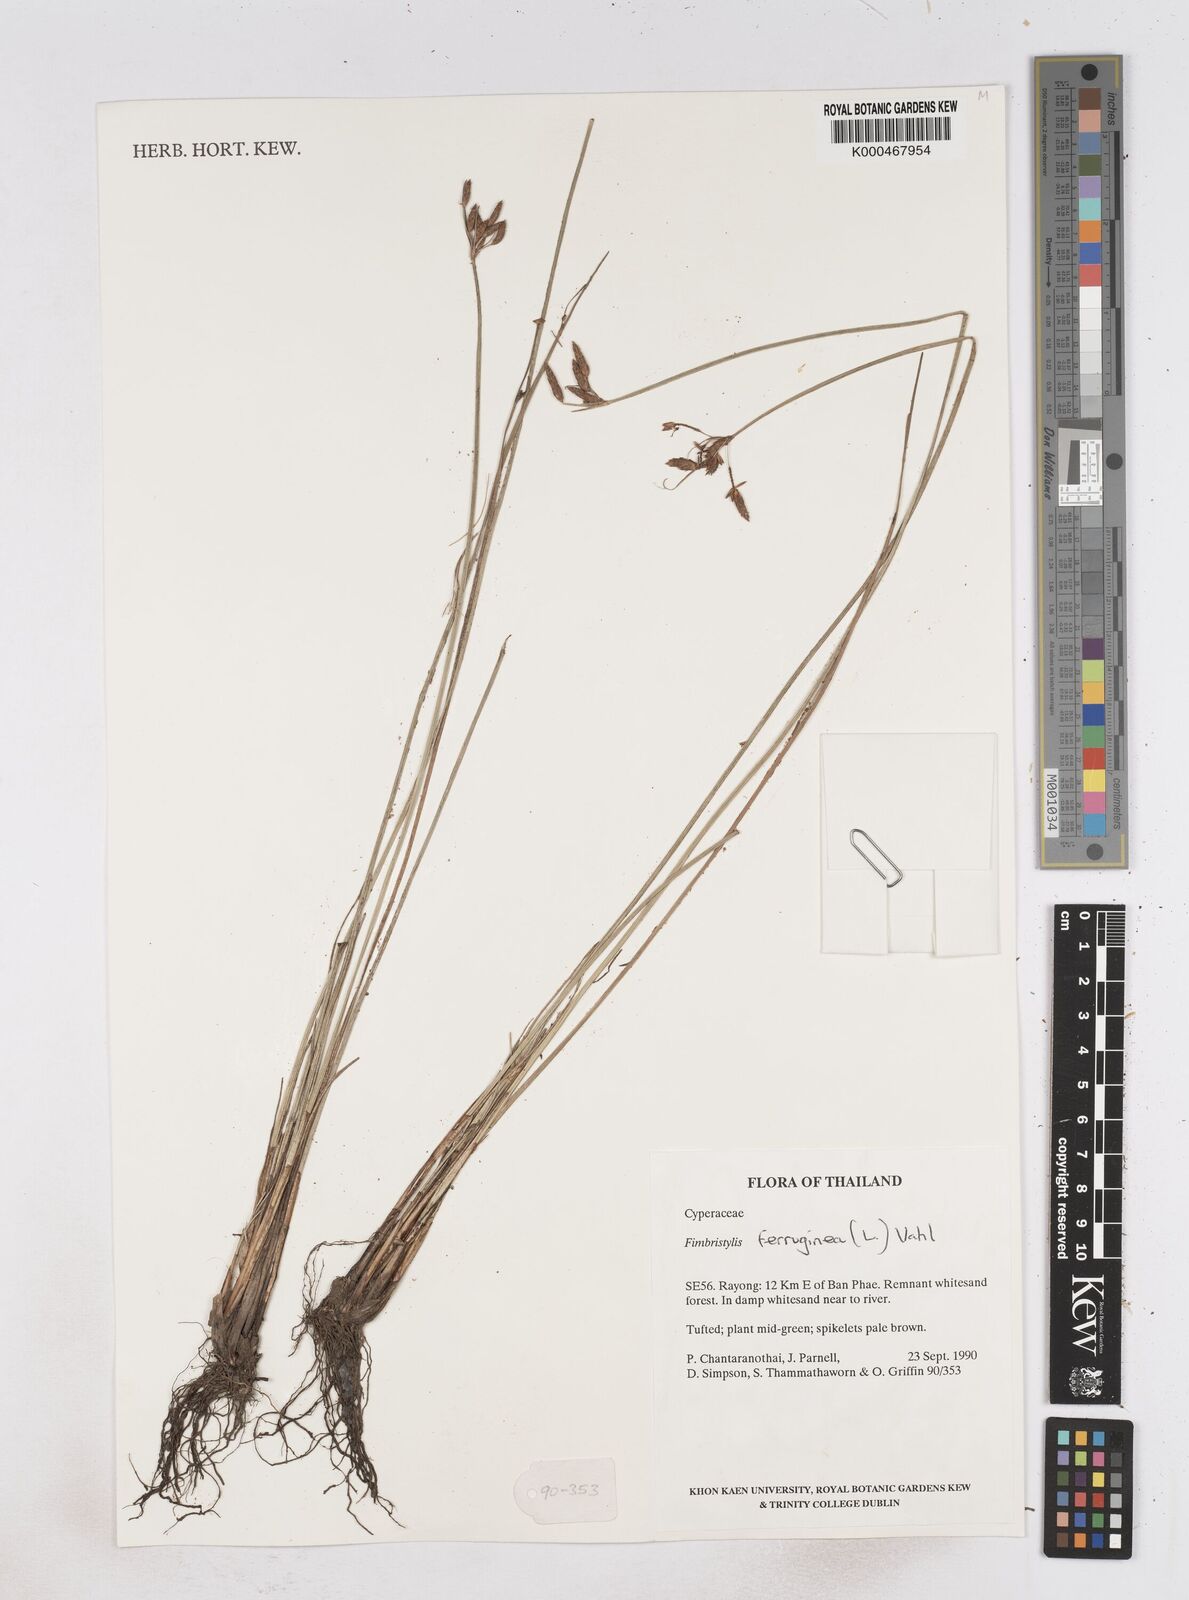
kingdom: Plantae
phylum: Tracheophyta
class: Liliopsida
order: Poales
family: Cyperaceae
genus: Fimbristylis
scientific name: Fimbristylis ferruginea
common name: West indian fimbry
